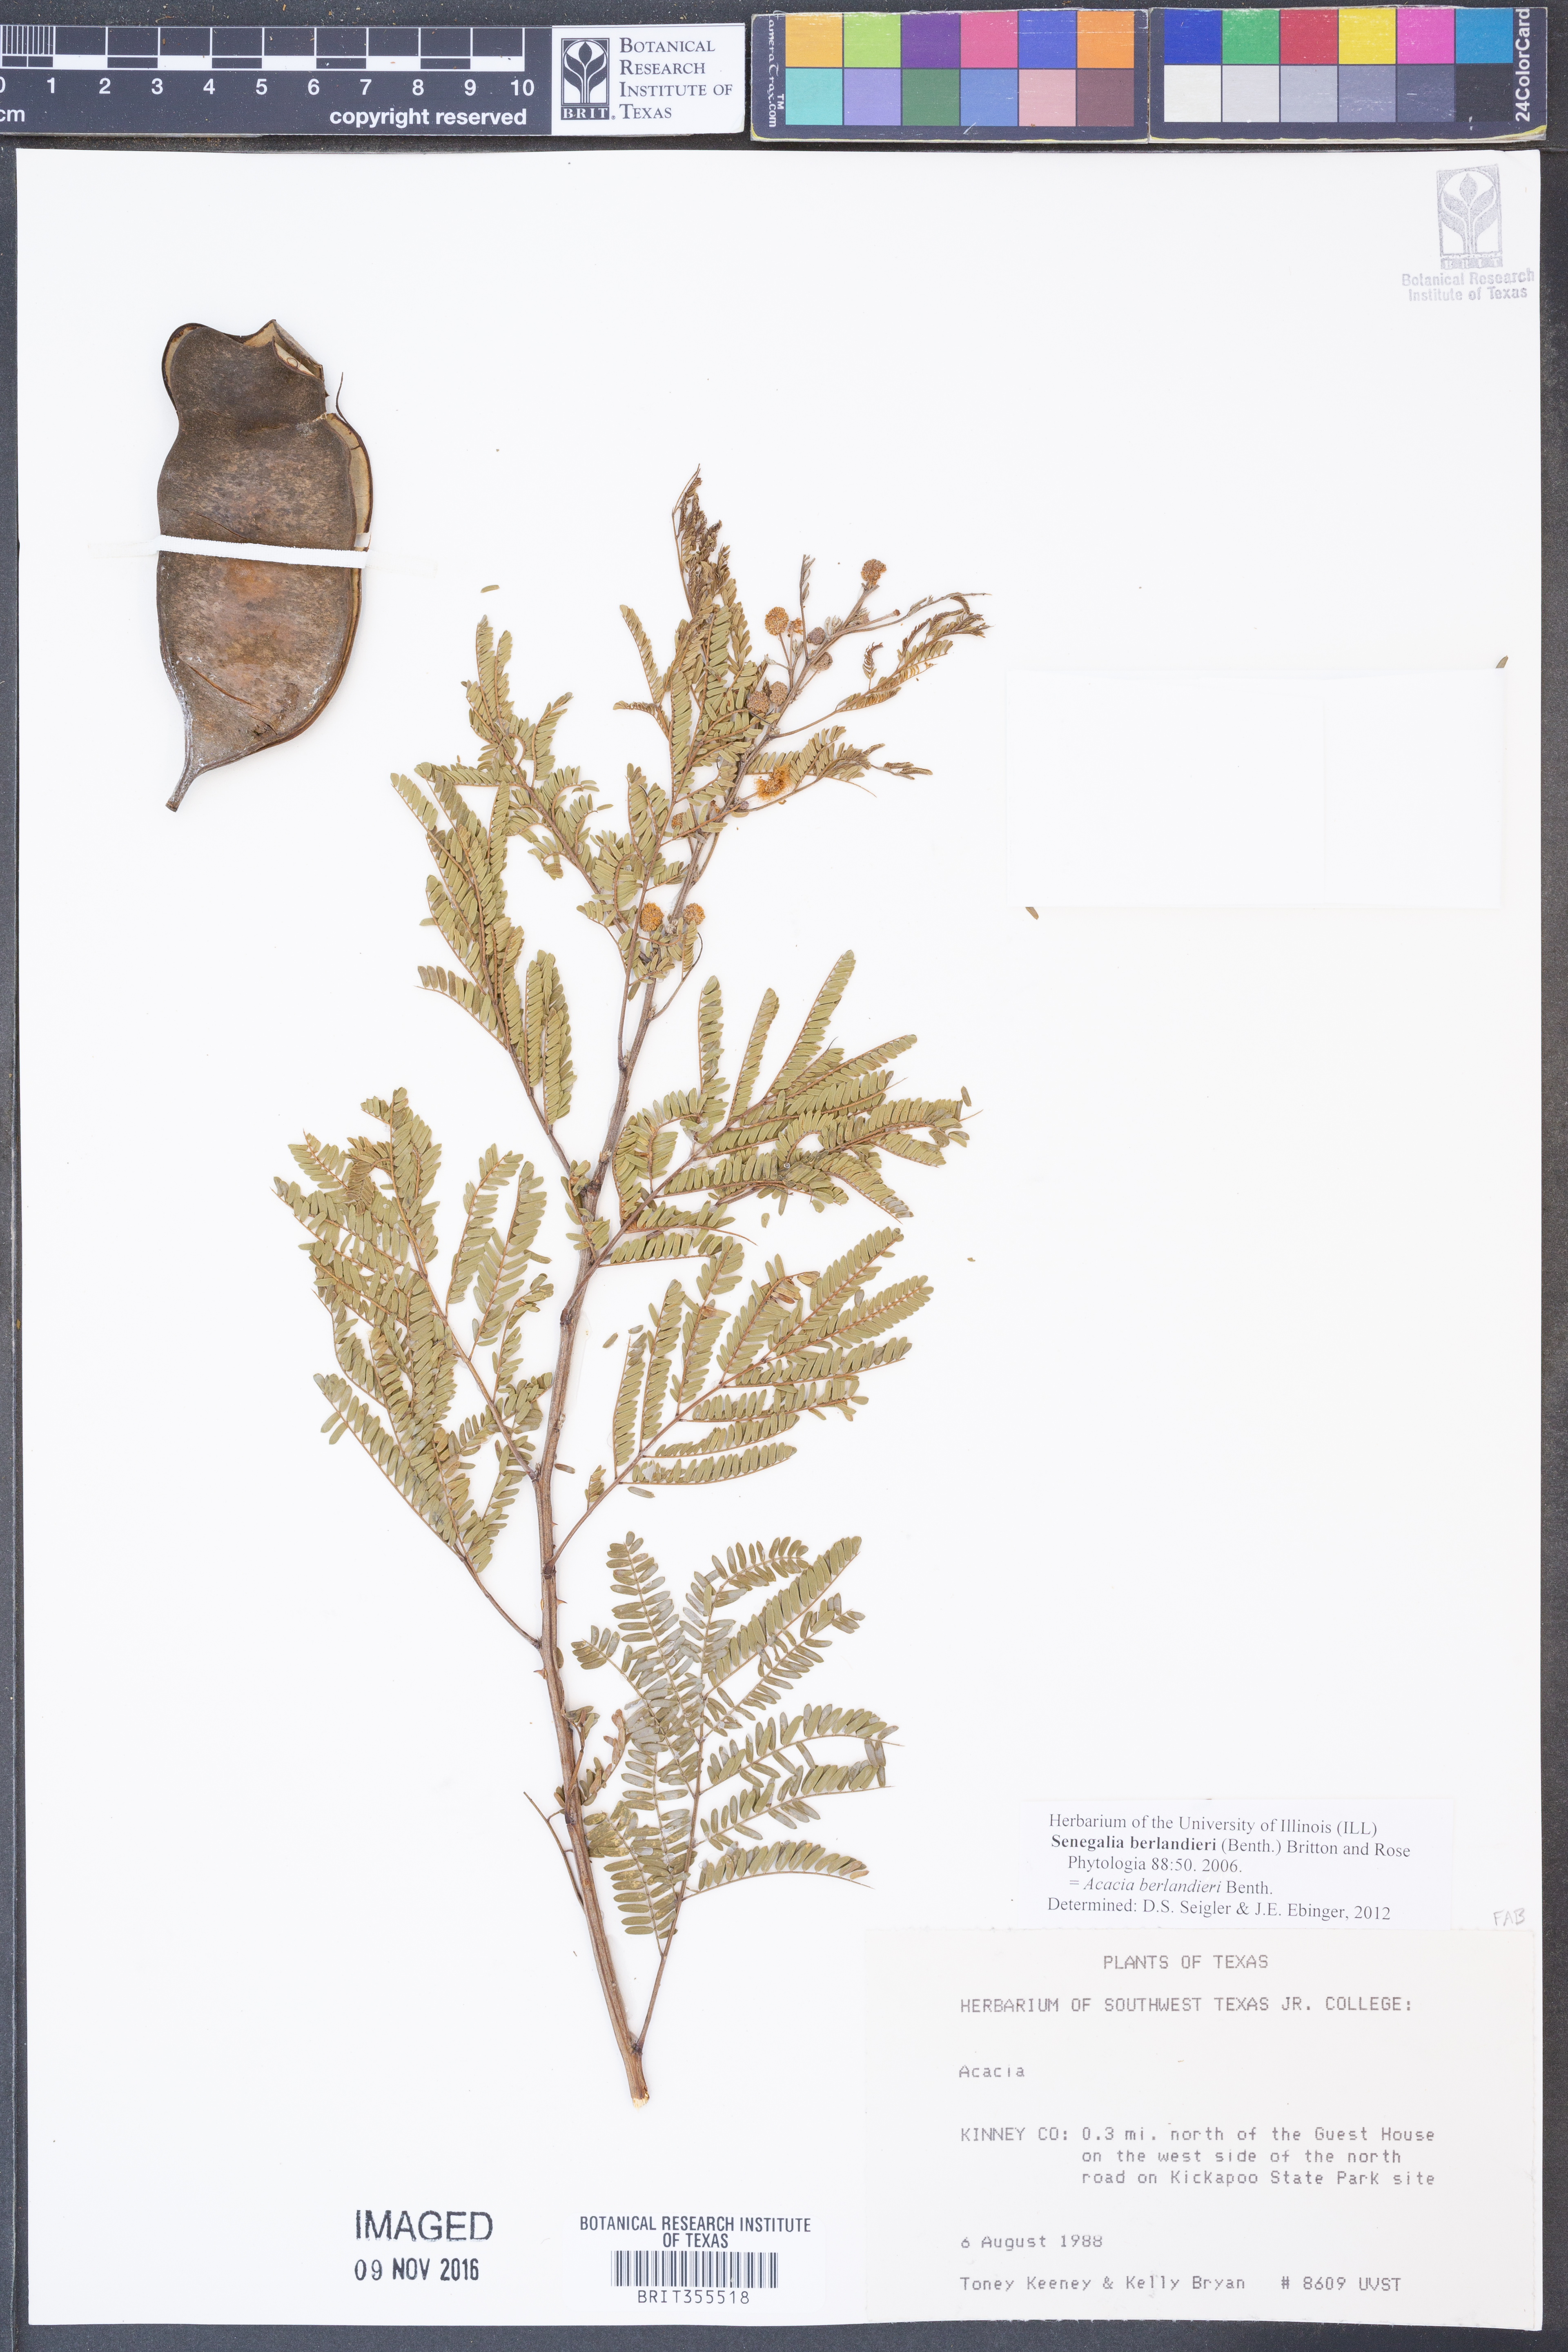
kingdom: Plantae
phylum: Tracheophyta
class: Magnoliopsida
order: Fabales
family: Fabaceae
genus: Senegalia
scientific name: Senegalia berlandieri
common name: Berlandier acacia
